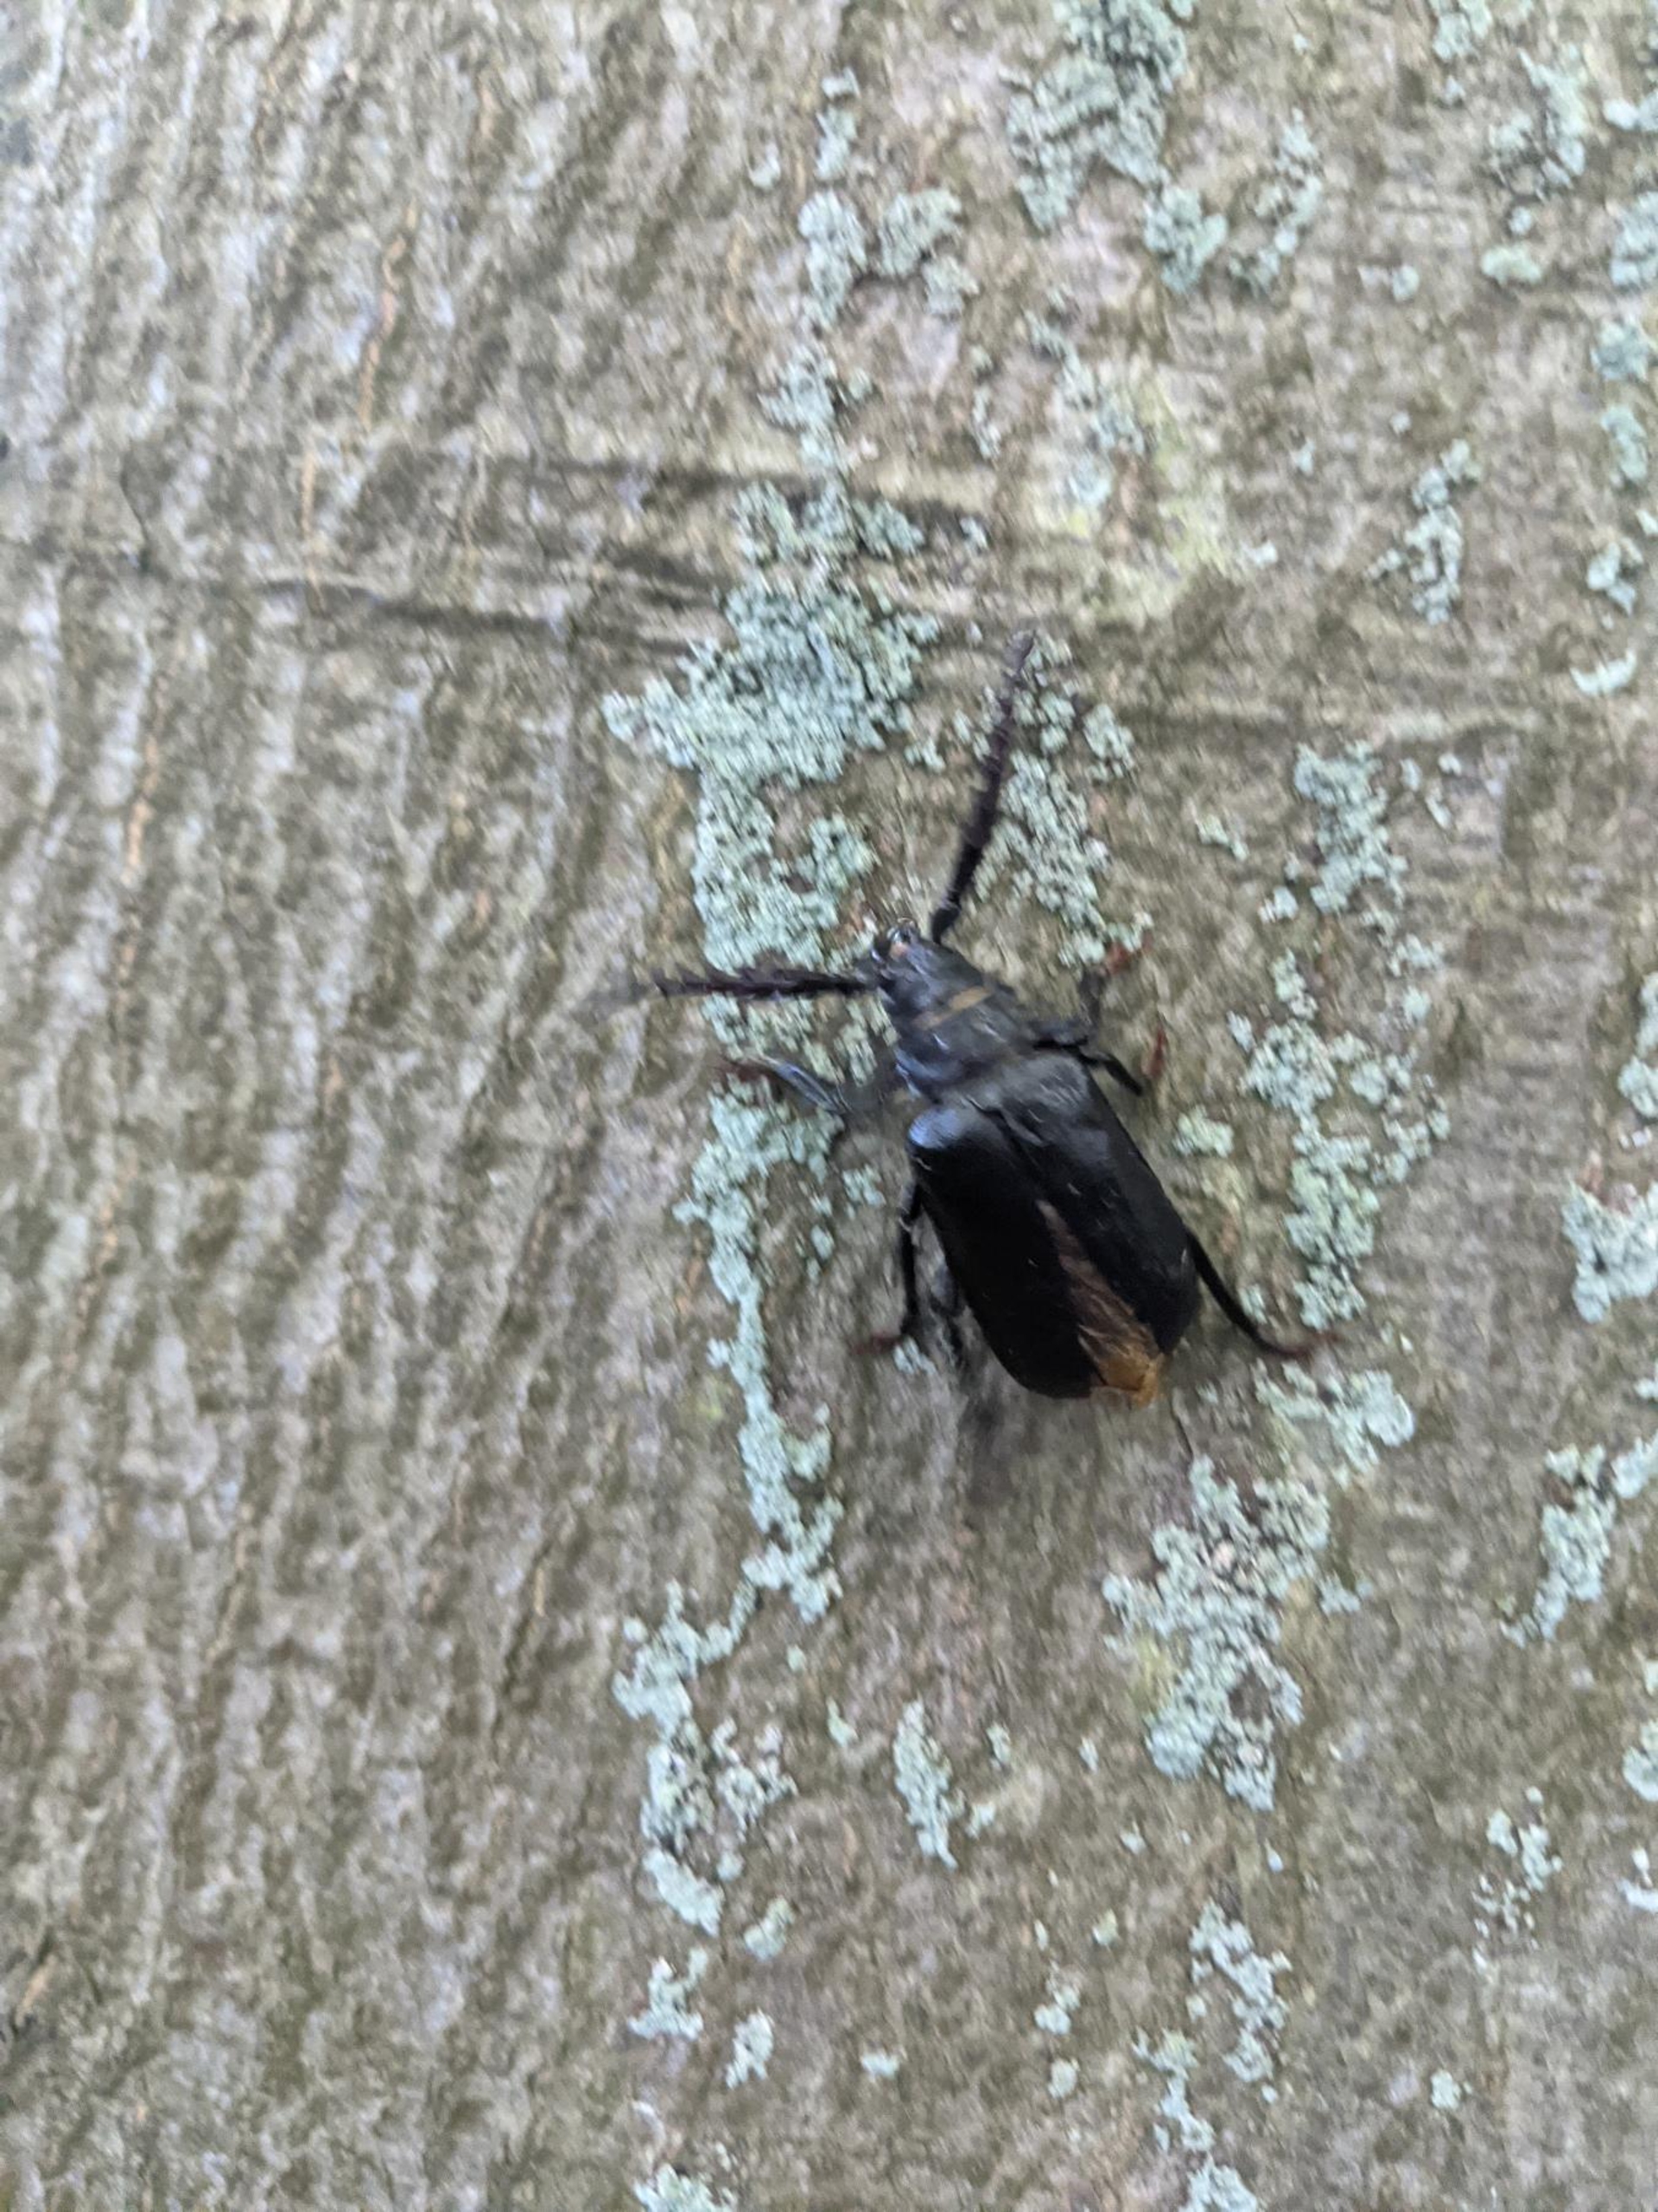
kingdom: Animalia
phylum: Arthropoda
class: Insecta
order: Coleoptera
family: Cerambycidae
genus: Prionus
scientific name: Prionus coriarius
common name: Garver
